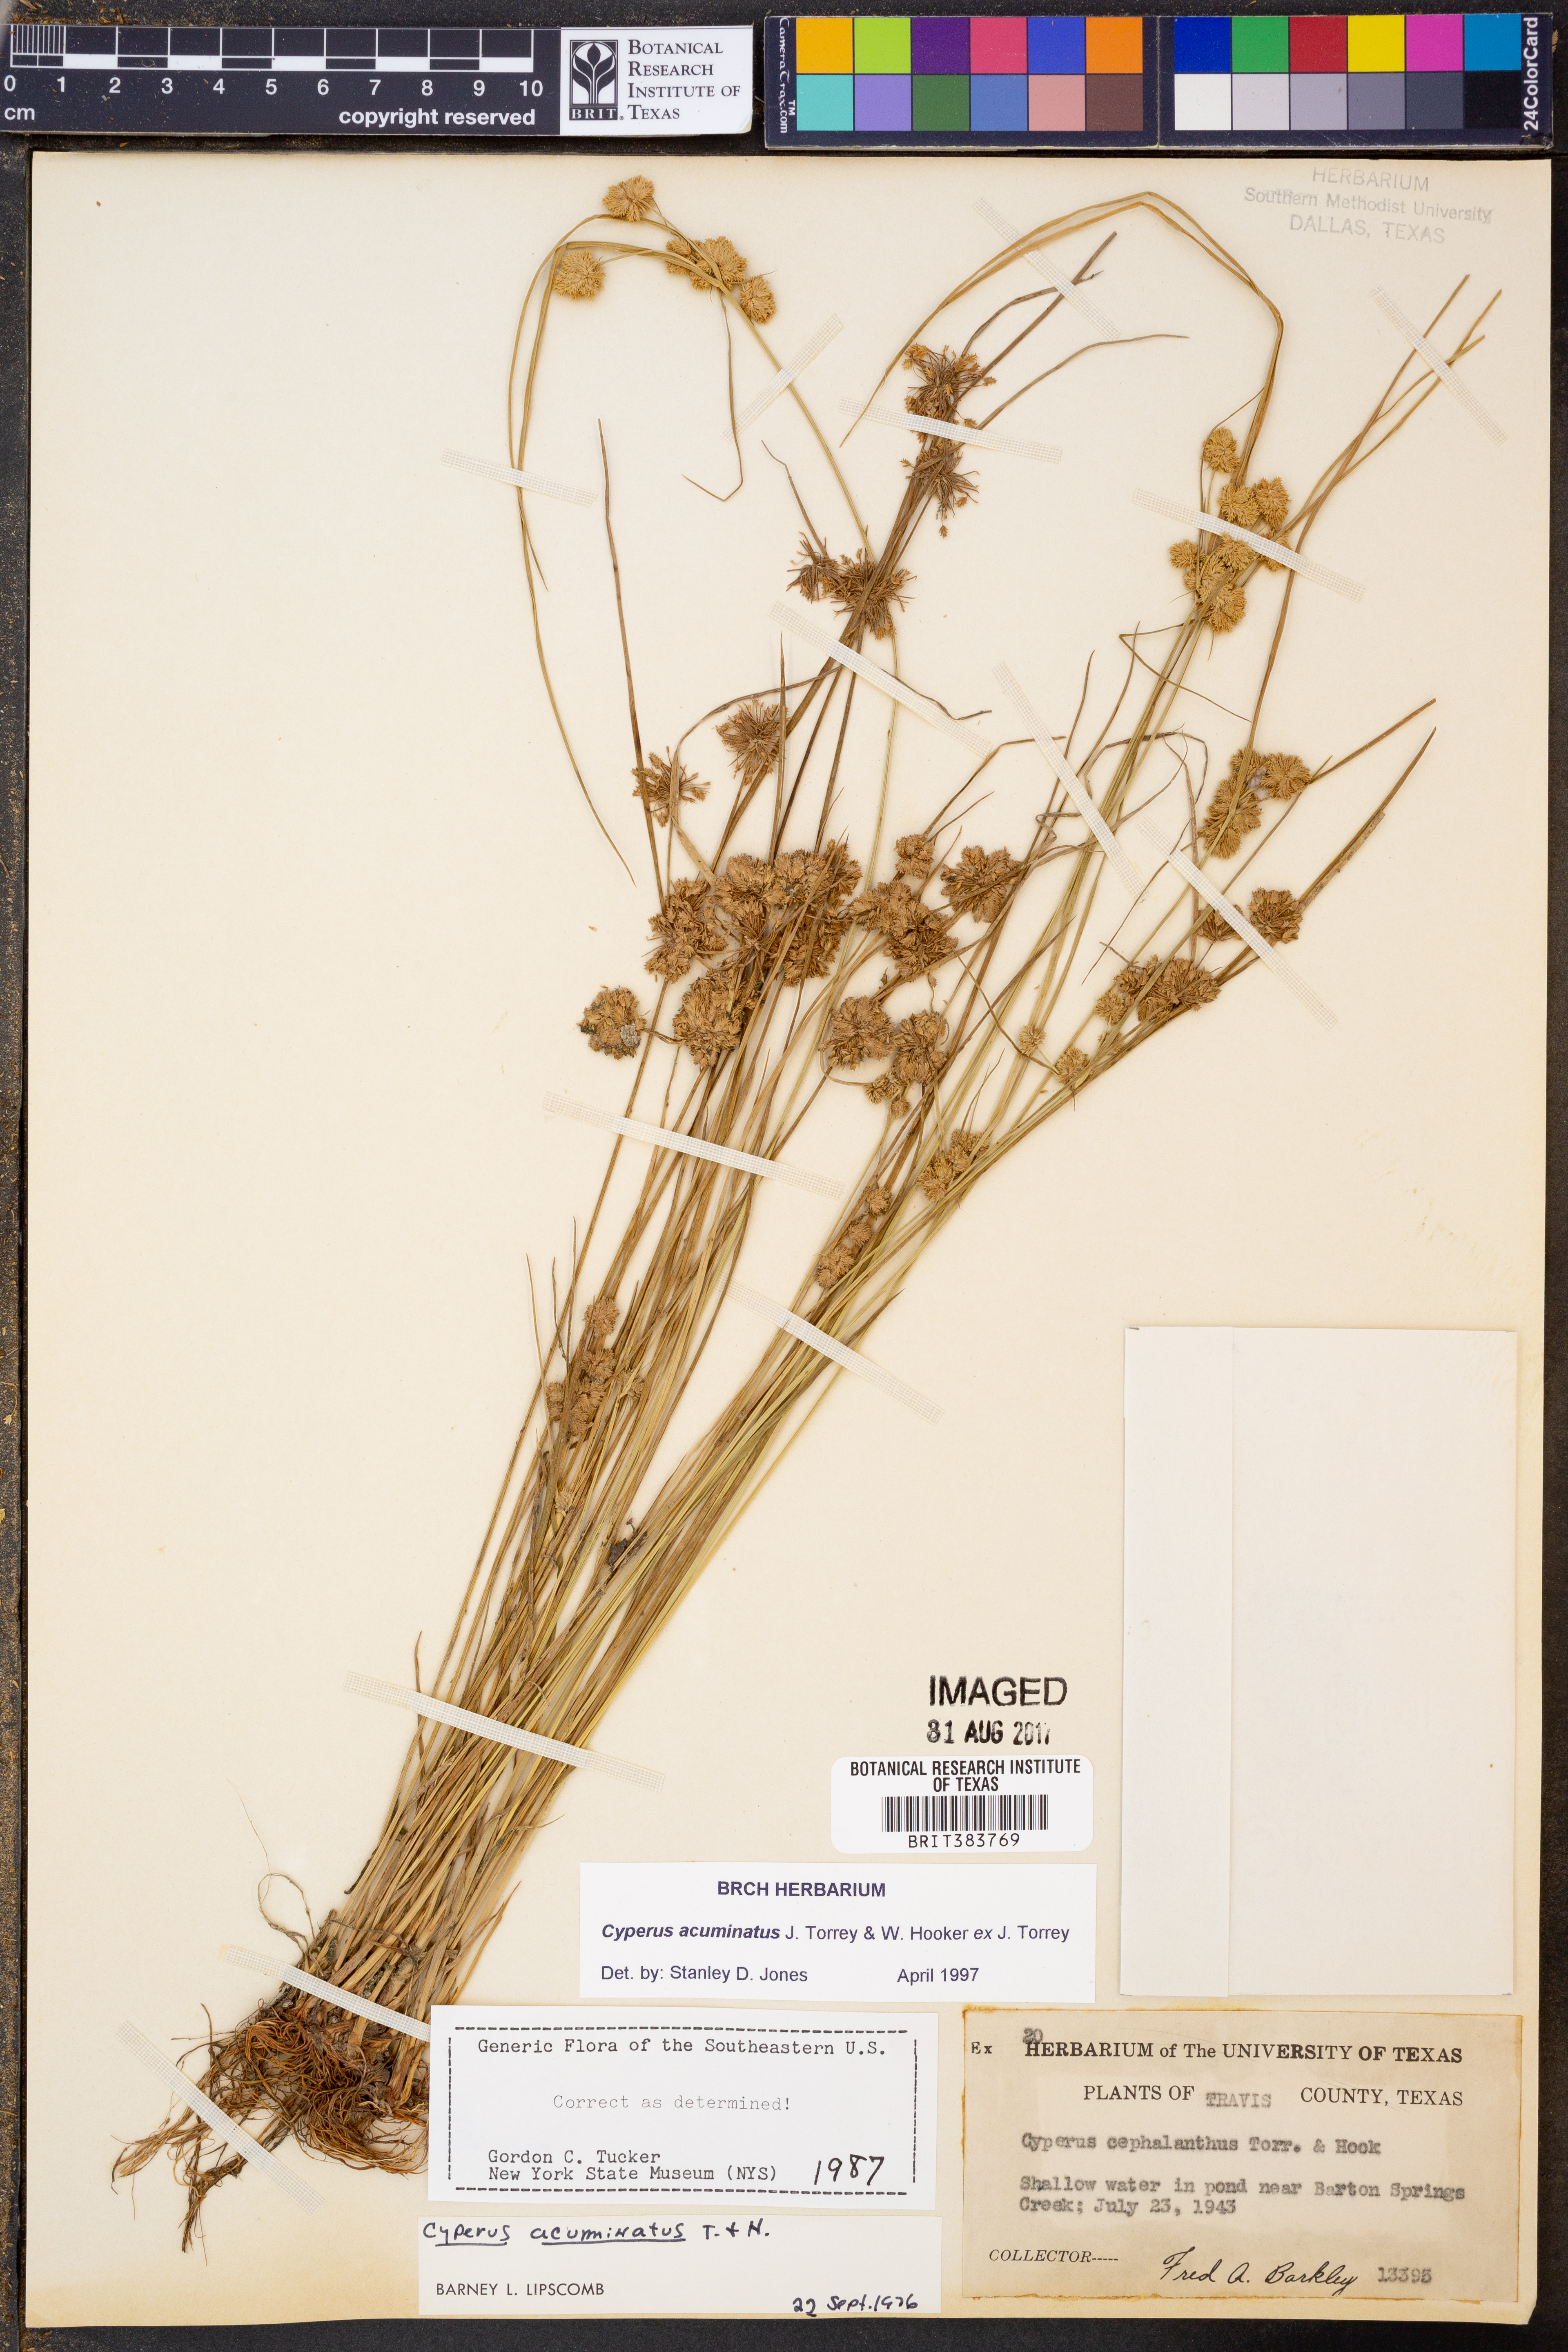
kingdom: Plantae
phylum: Tracheophyta
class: Liliopsida
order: Poales
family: Cyperaceae
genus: Cyperus
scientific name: Cyperus acuminatus
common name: Short-pointed cyperus
